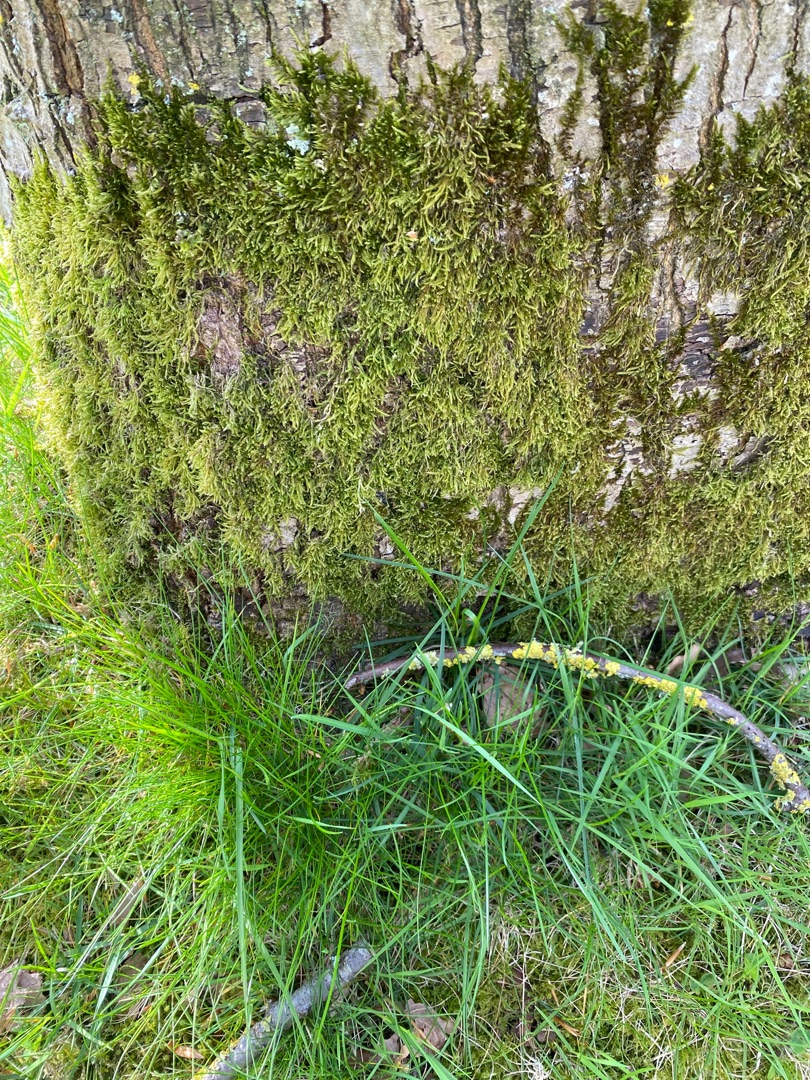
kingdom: Plantae
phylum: Bryophyta
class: Bryopsida
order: Hypnales
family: Hypnaceae
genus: Hypnum
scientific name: Hypnum cupressiforme
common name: Almindelig cypresmos
